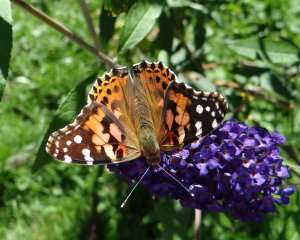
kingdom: Animalia
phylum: Arthropoda
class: Insecta
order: Lepidoptera
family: Nymphalidae
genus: Vanessa
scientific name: Vanessa cardui
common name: Painted Lady
